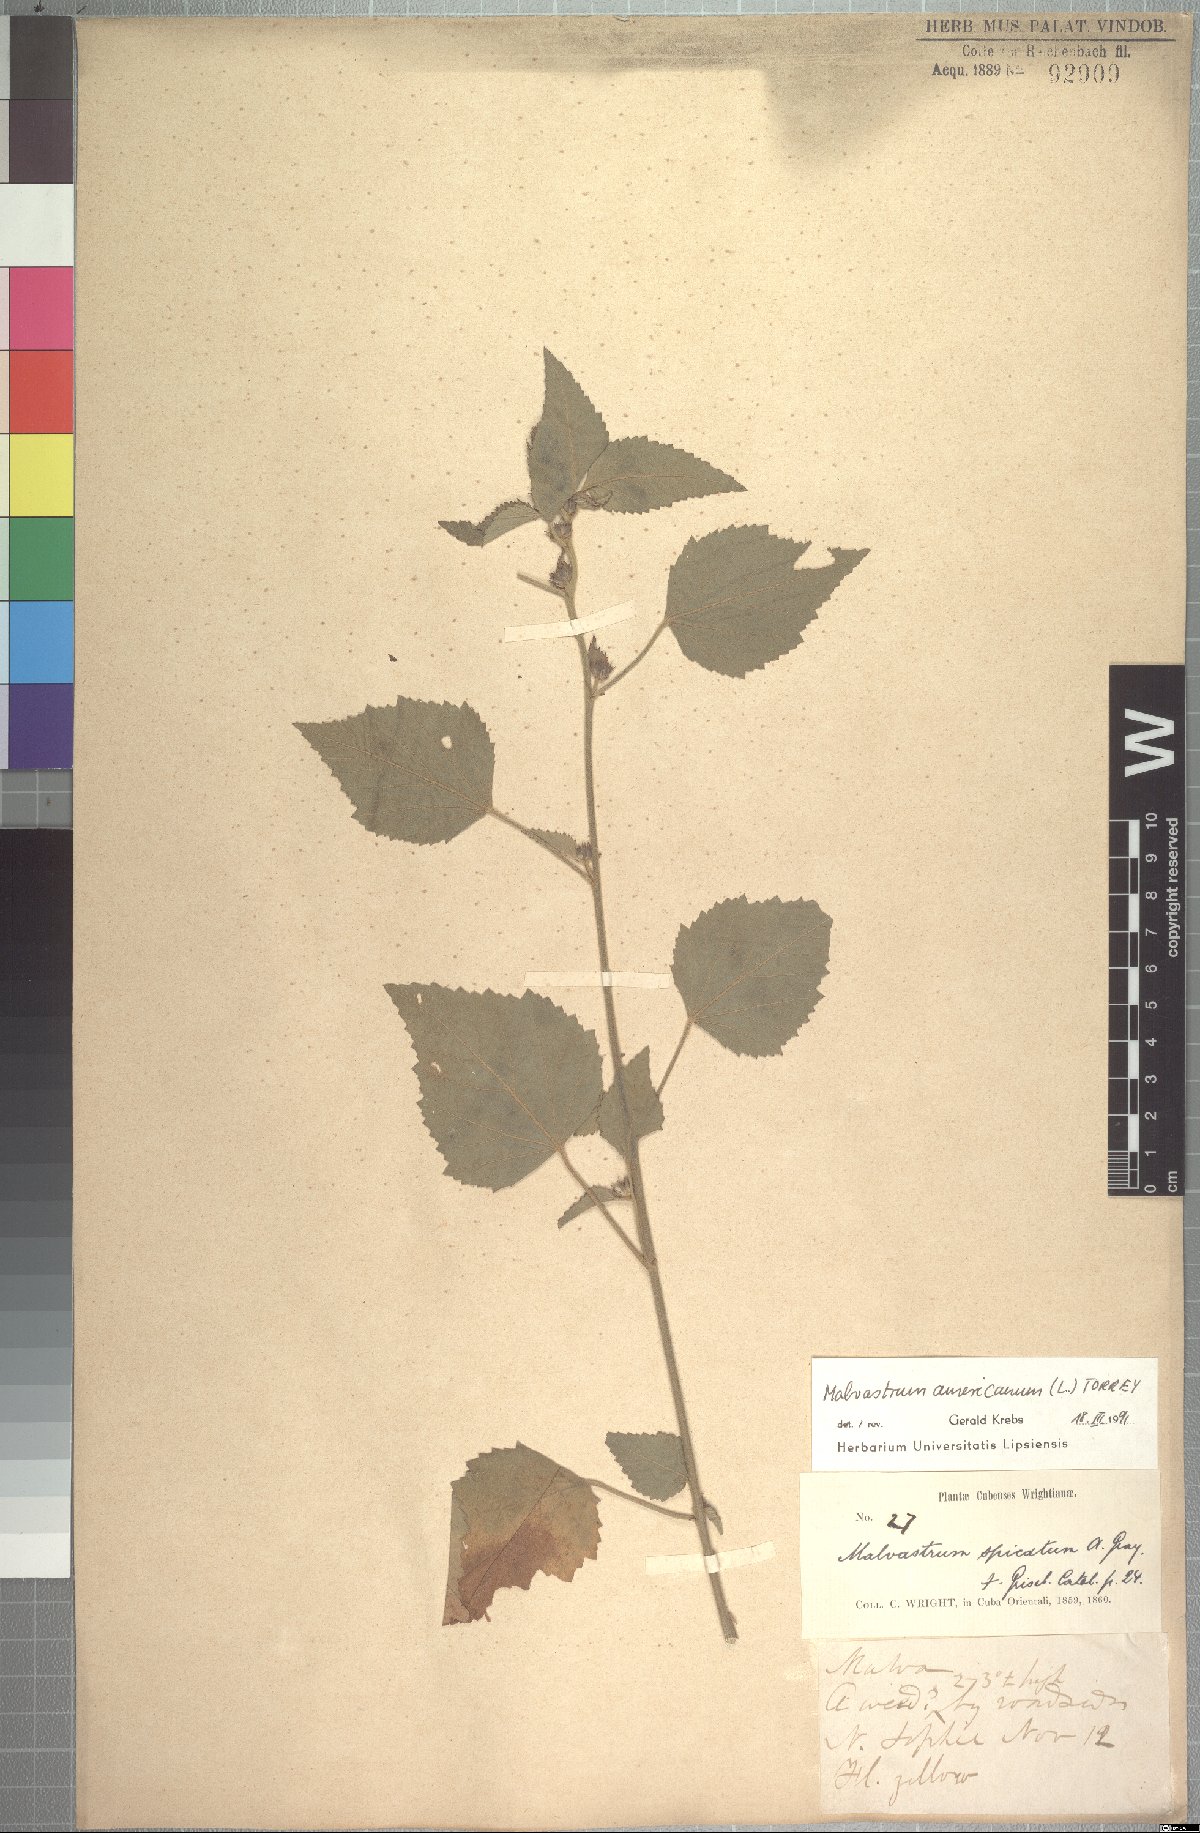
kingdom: Plantae
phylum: Tracheophyta
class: Magnoliopsida
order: Malvales
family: Malvaceae
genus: Malvastrum
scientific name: Malvastrum americanum
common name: Spiked malvastrum
